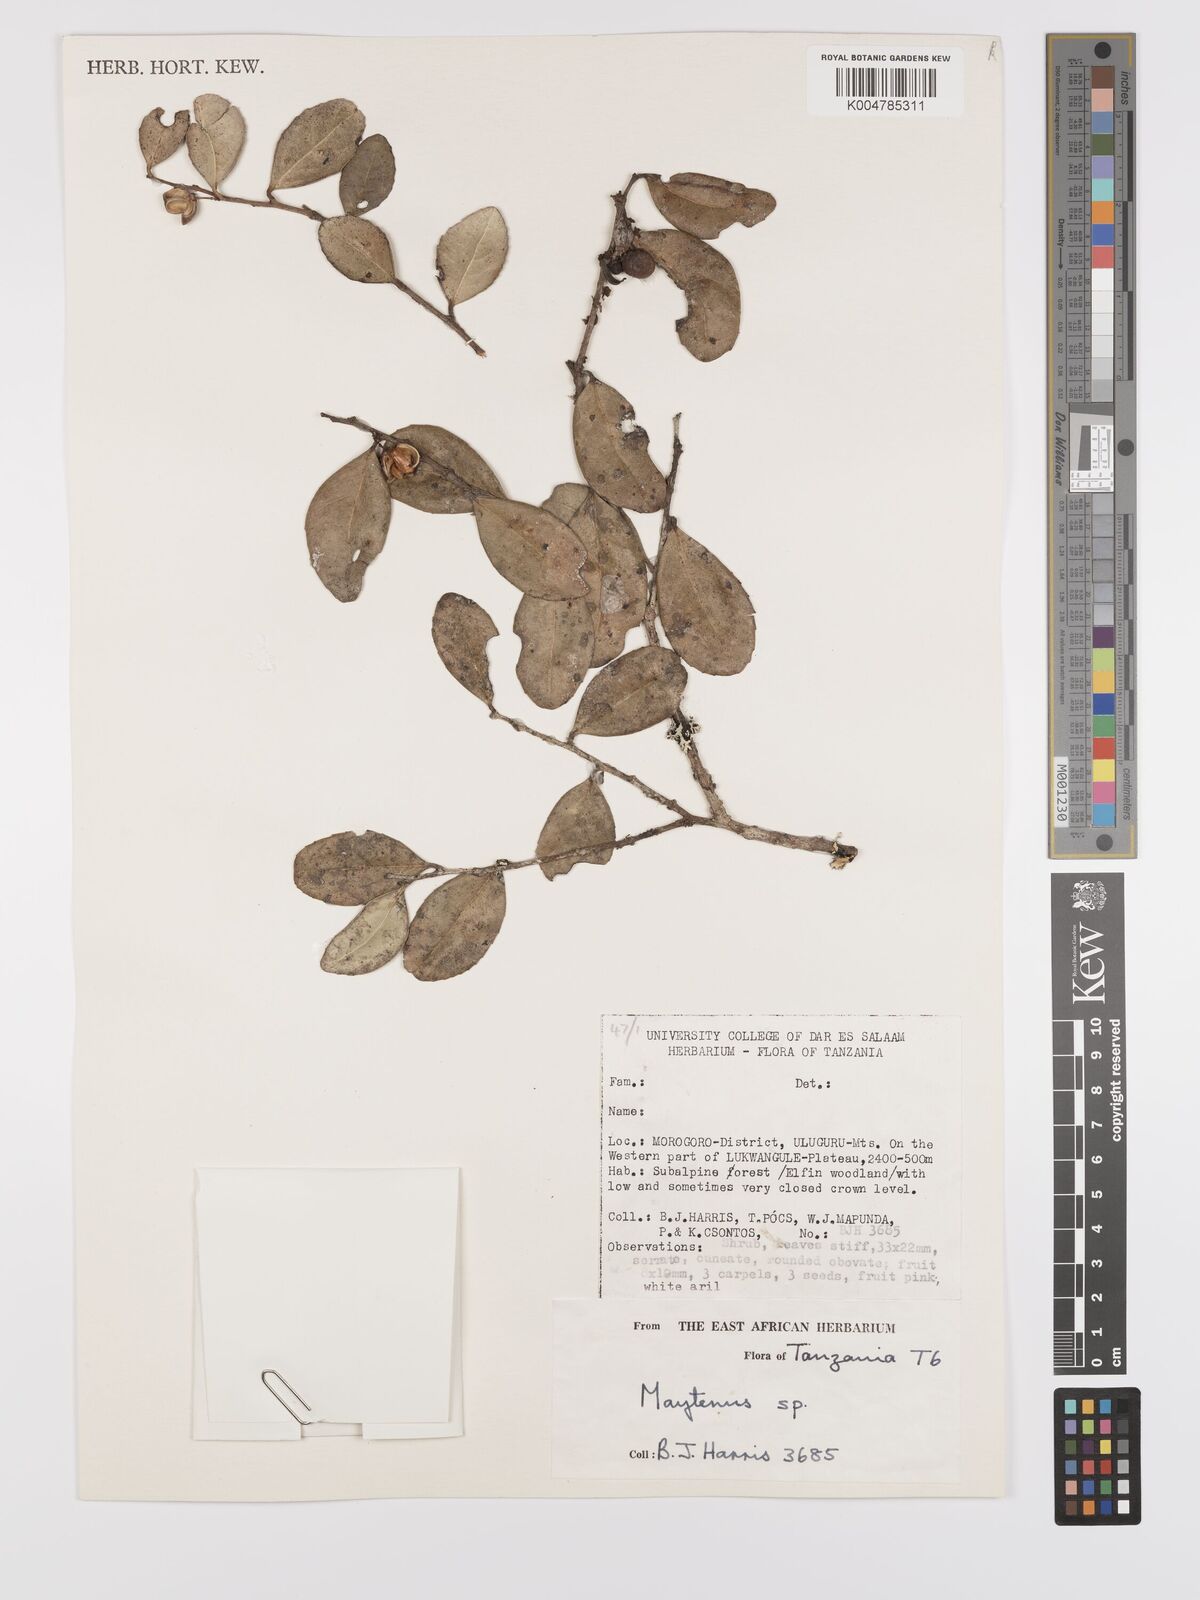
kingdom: Plantae
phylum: Tracheophyta
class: Magnoliopsida
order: Celastrales
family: Celastraceae
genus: Gymnosporia
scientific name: Gymnosporia heterophylla
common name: Angle-stem spikethorn
